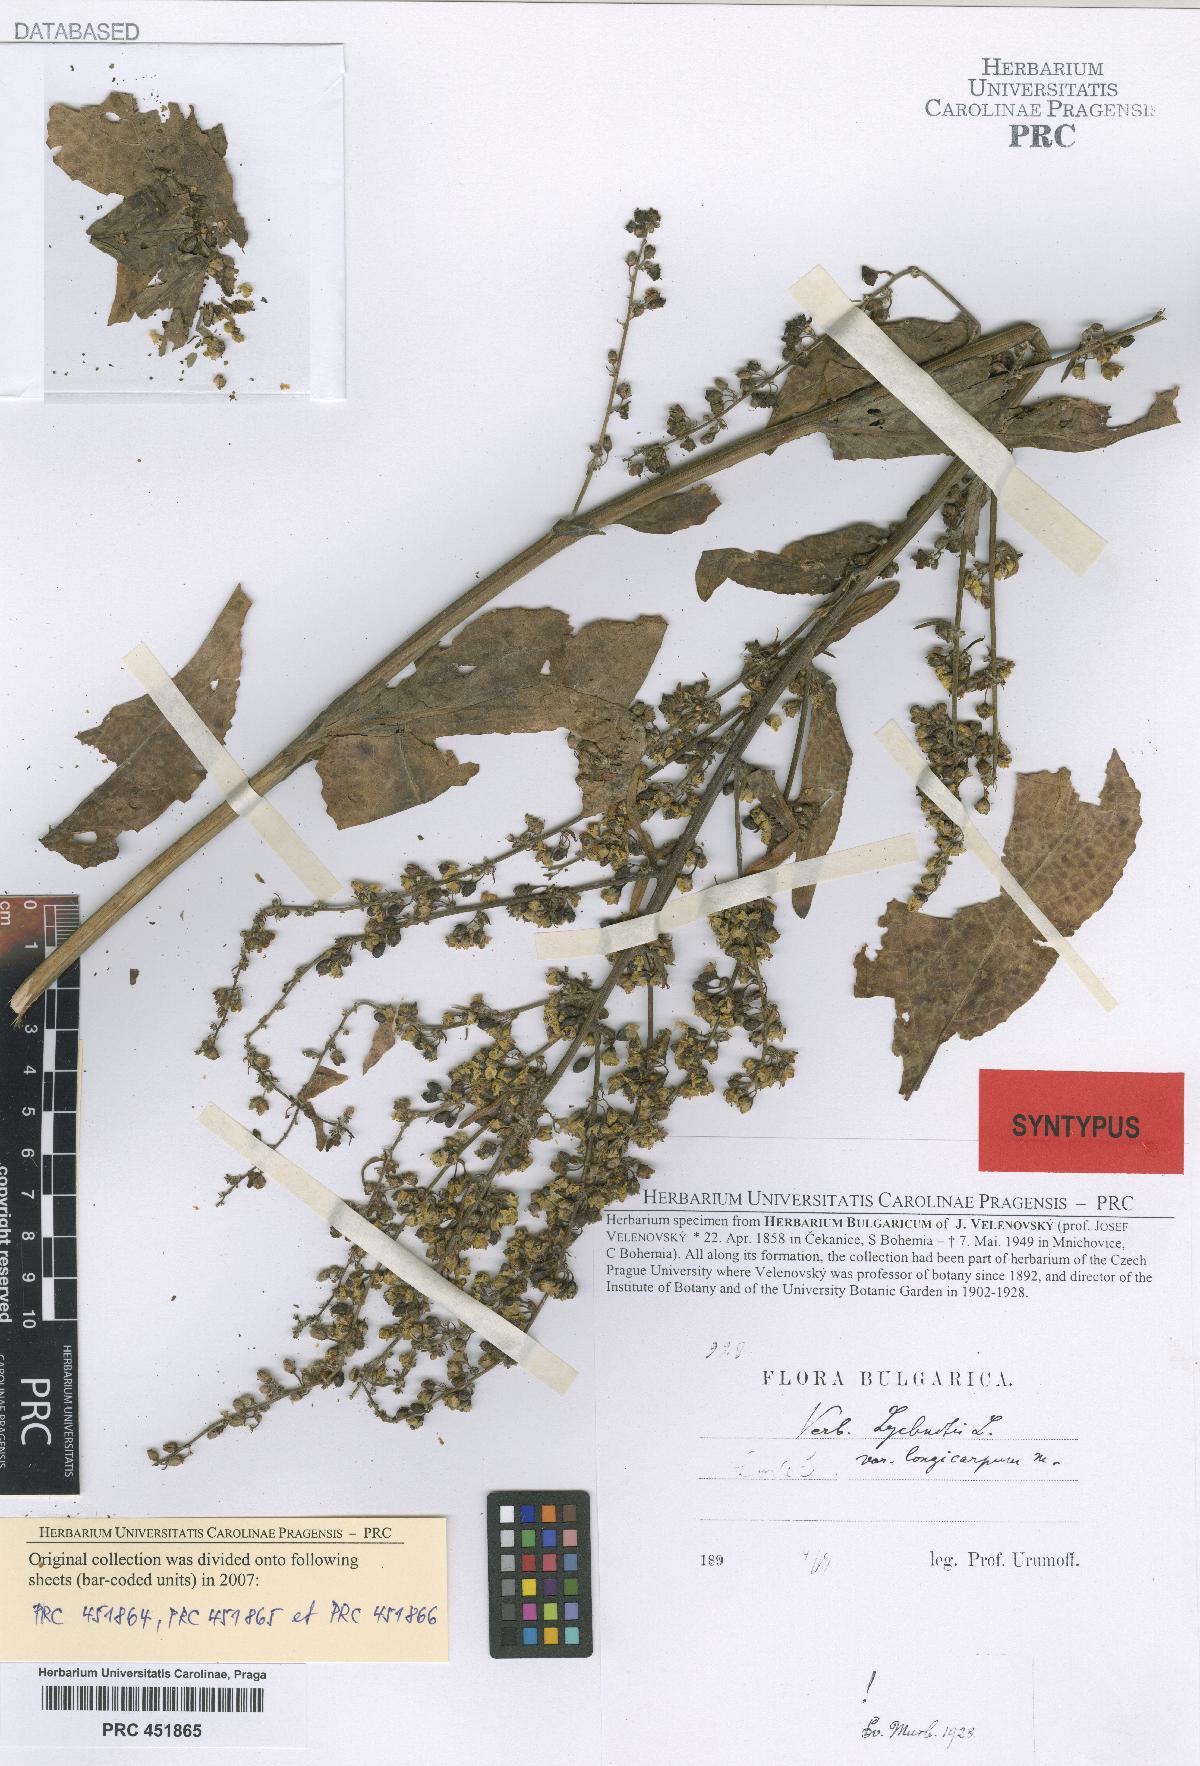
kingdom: Plantae
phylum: Tracheophyta
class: Magnoliopsida
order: Lamiales
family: Scrophulariaceae
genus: Verbascum
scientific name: Verbascum lychnitis
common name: White mullein
